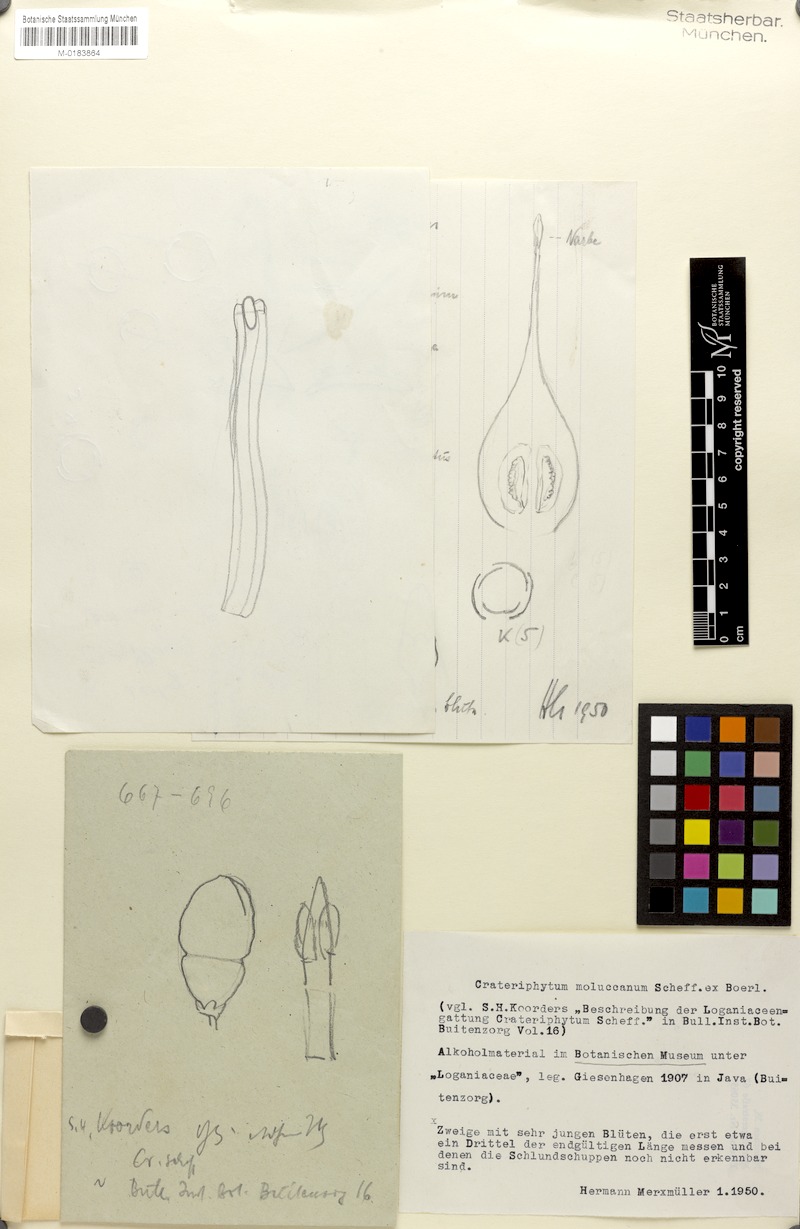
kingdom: Plantae
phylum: Tracheophyta
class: Magnoliopsida
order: Gentianales
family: Loganiaceae
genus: Neuburgia
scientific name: Neuburgia moluccana
